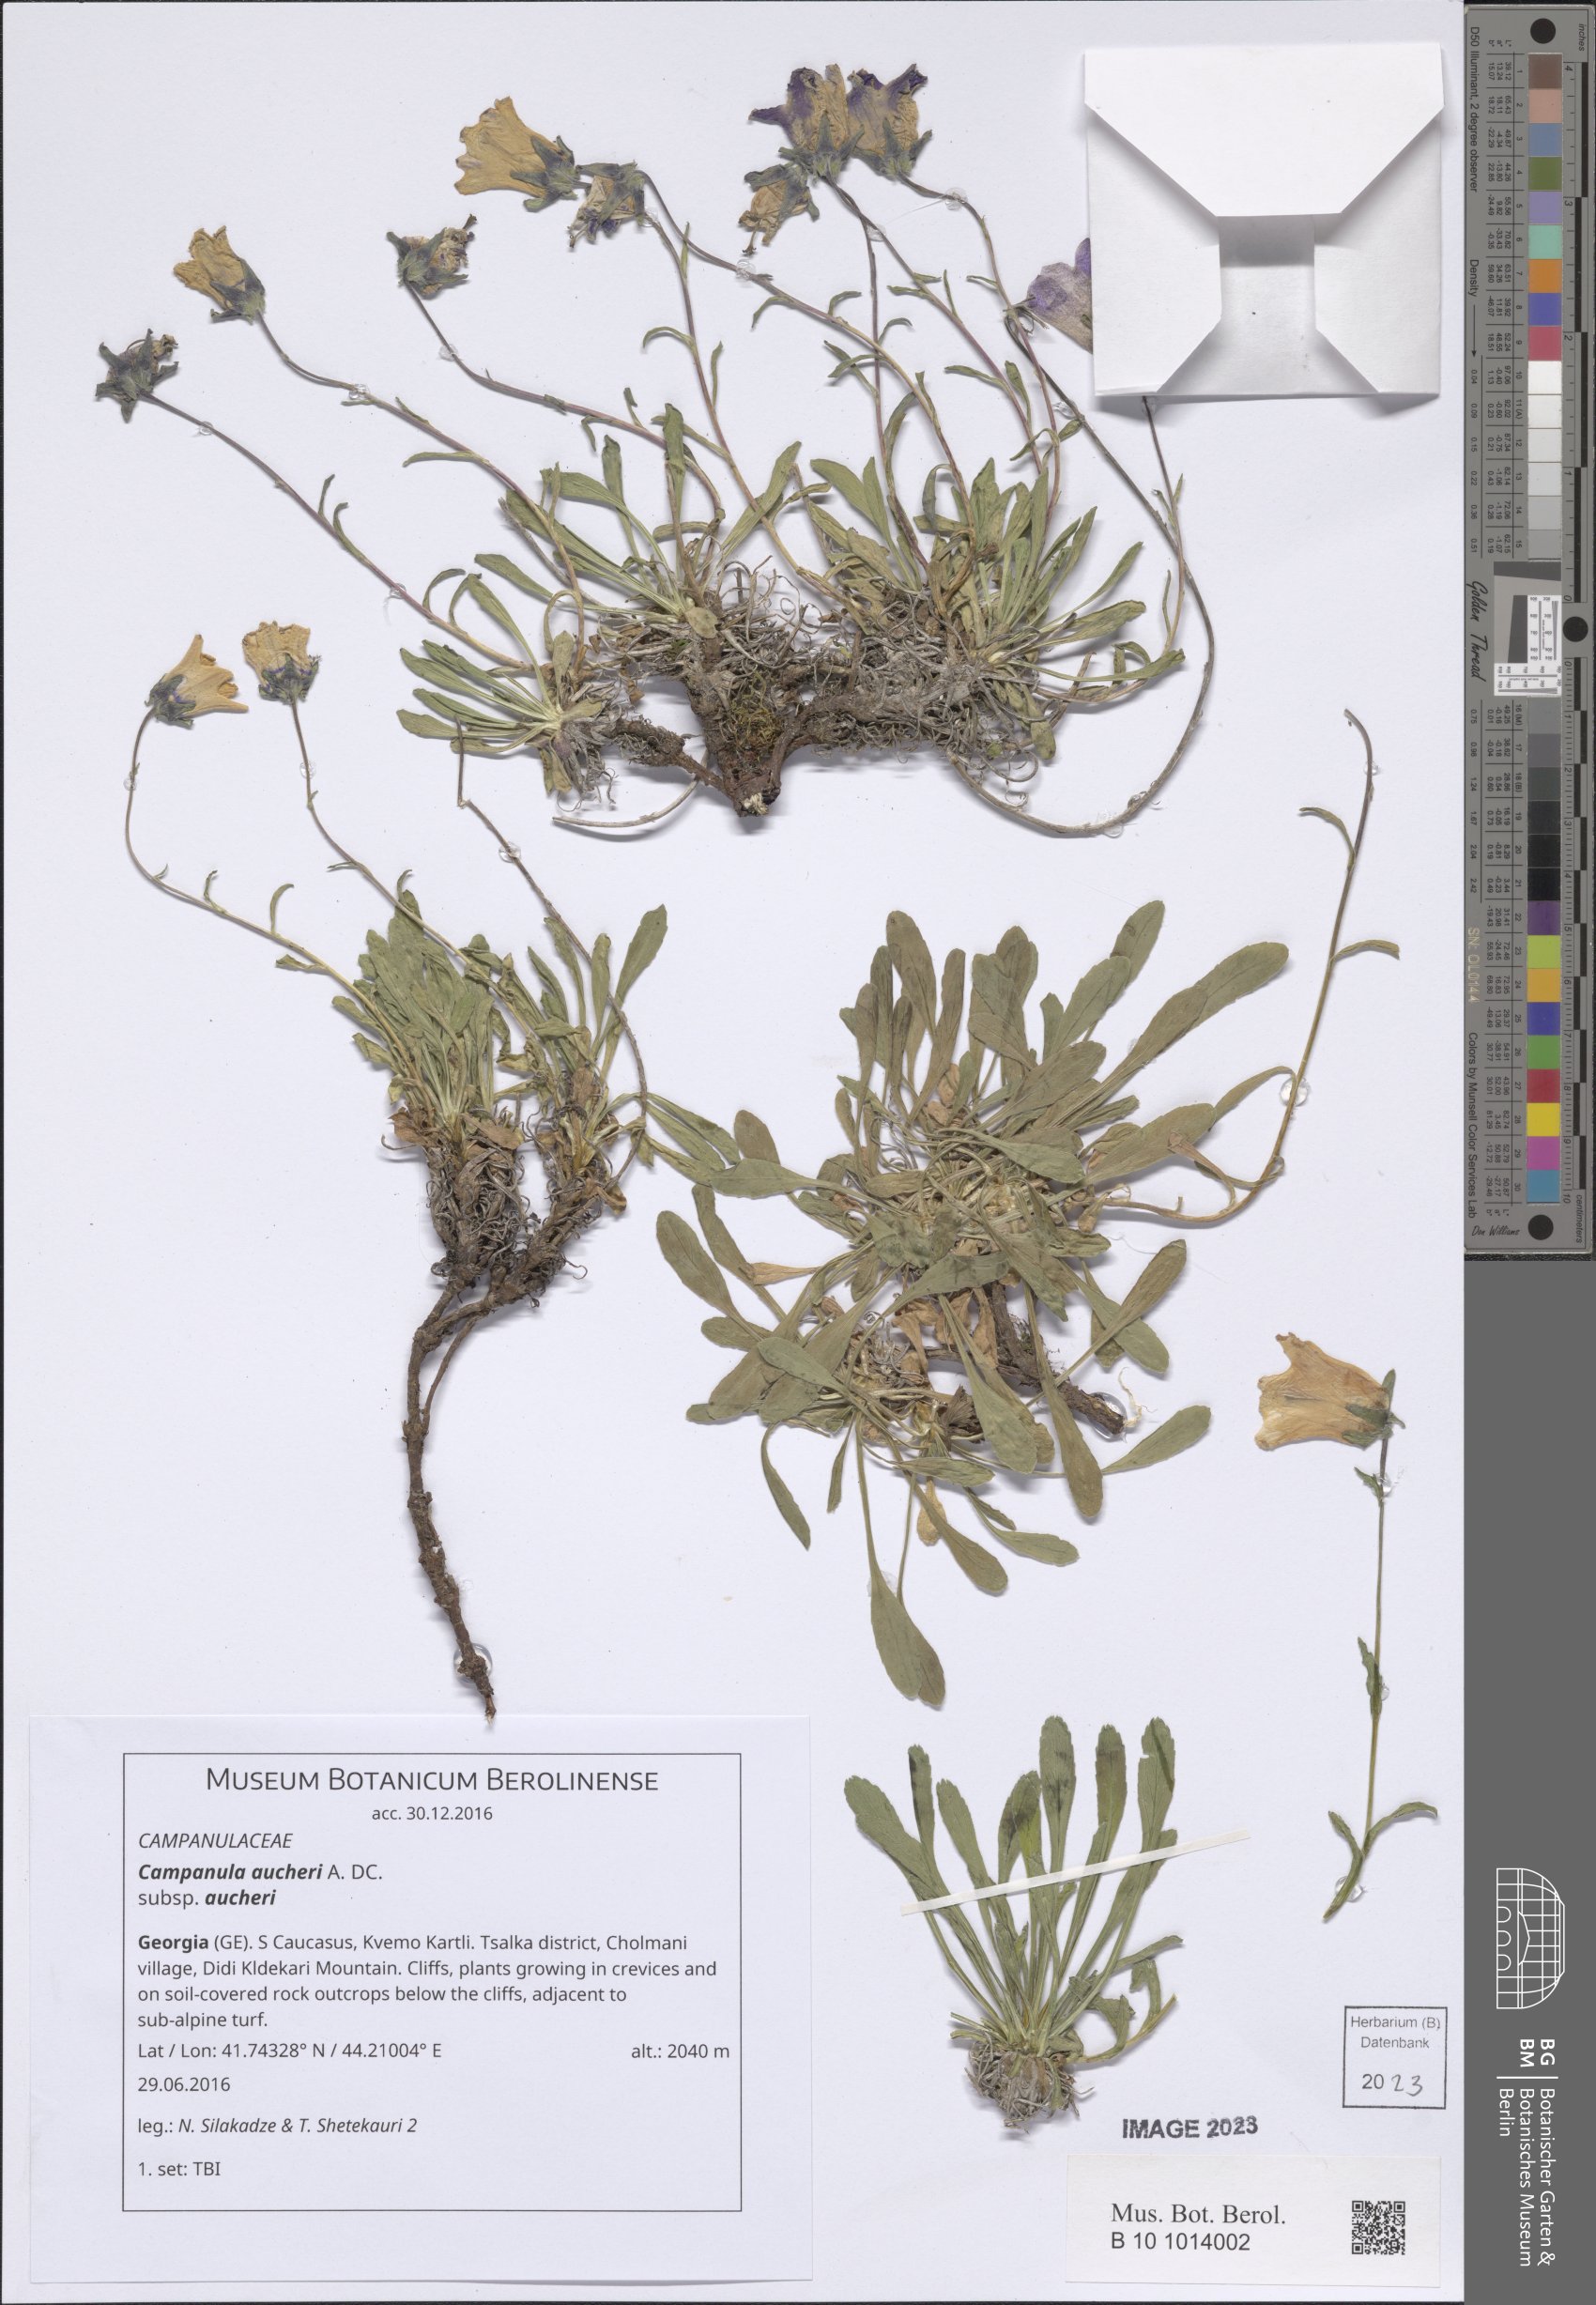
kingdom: Plantae
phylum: Tracheophyta
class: Magnoliopsida
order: Asterales
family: Campanulaceae
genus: Campanula
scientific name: Campanula saxifraga
